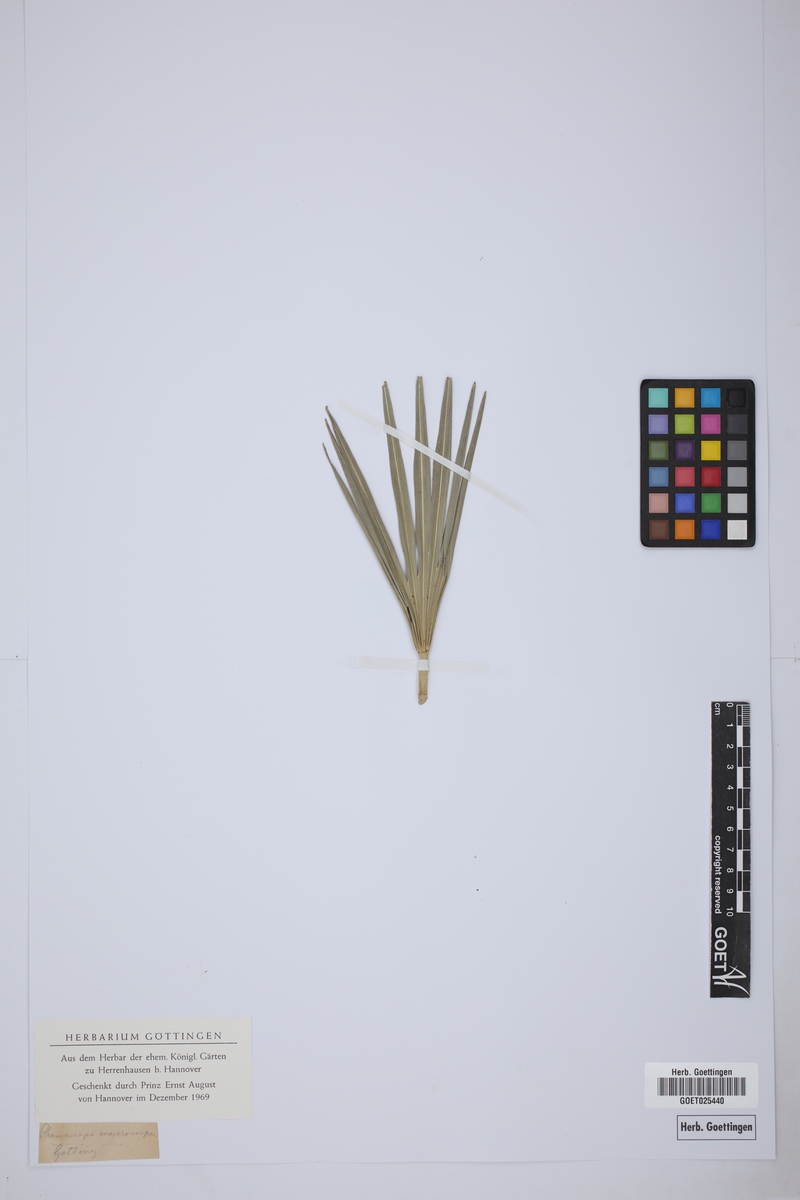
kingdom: Plantae
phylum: Tracheophyta
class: Liliopsida
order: Arecales
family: Arecaceae
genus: Chamaerops
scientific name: Chamaerops humilis
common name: Dwarf fan palm
